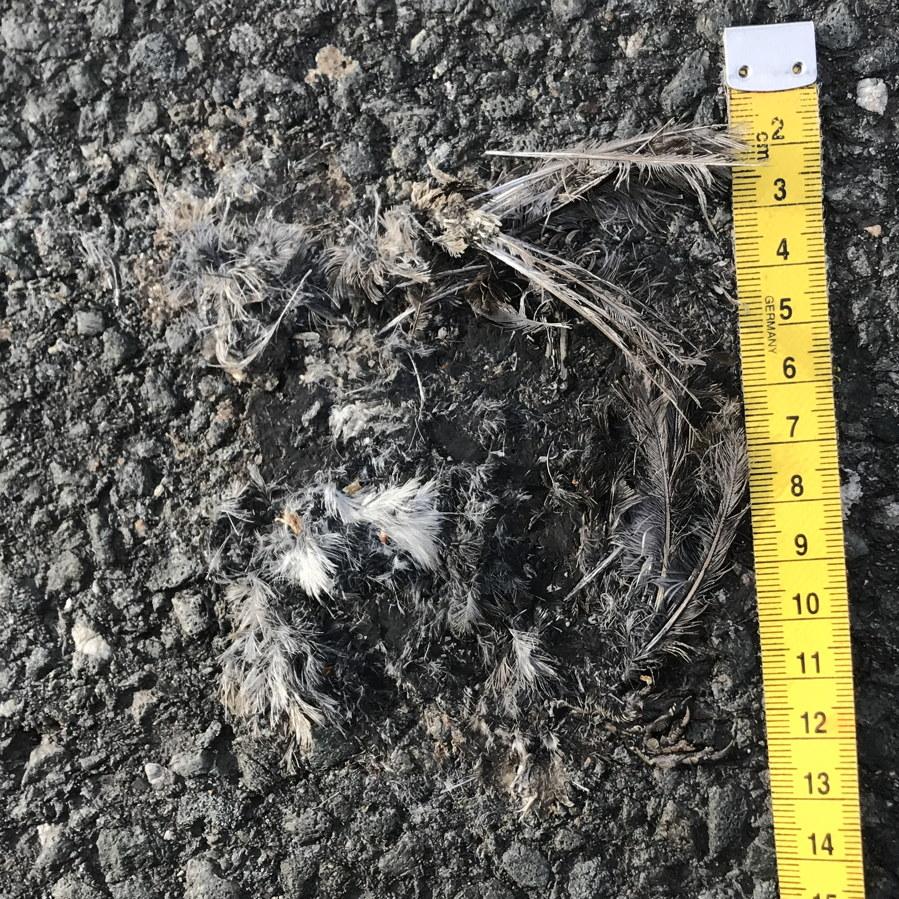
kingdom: Animalia
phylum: Chordata
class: Aves
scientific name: Aves
